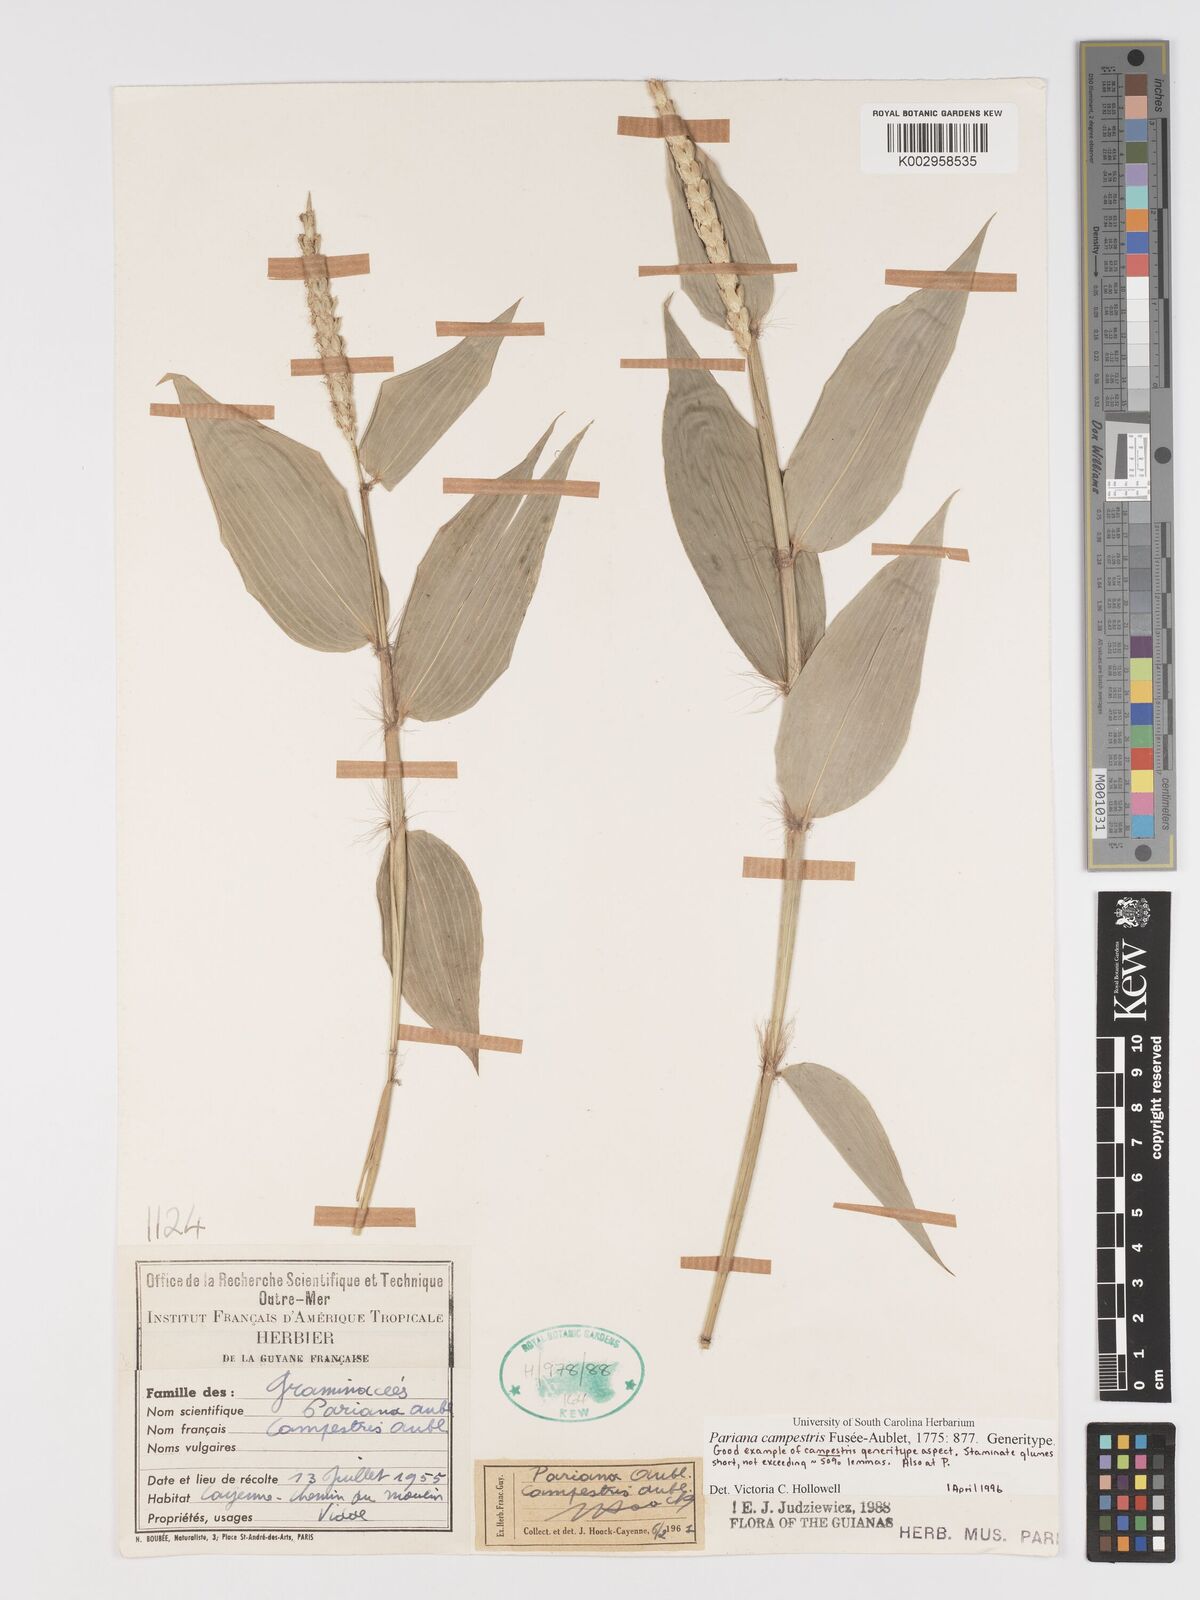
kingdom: Plantae
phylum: Tracheophyta
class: Liliopsida
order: Poales
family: Poaceae
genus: Pariana
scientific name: Pariana campestris
